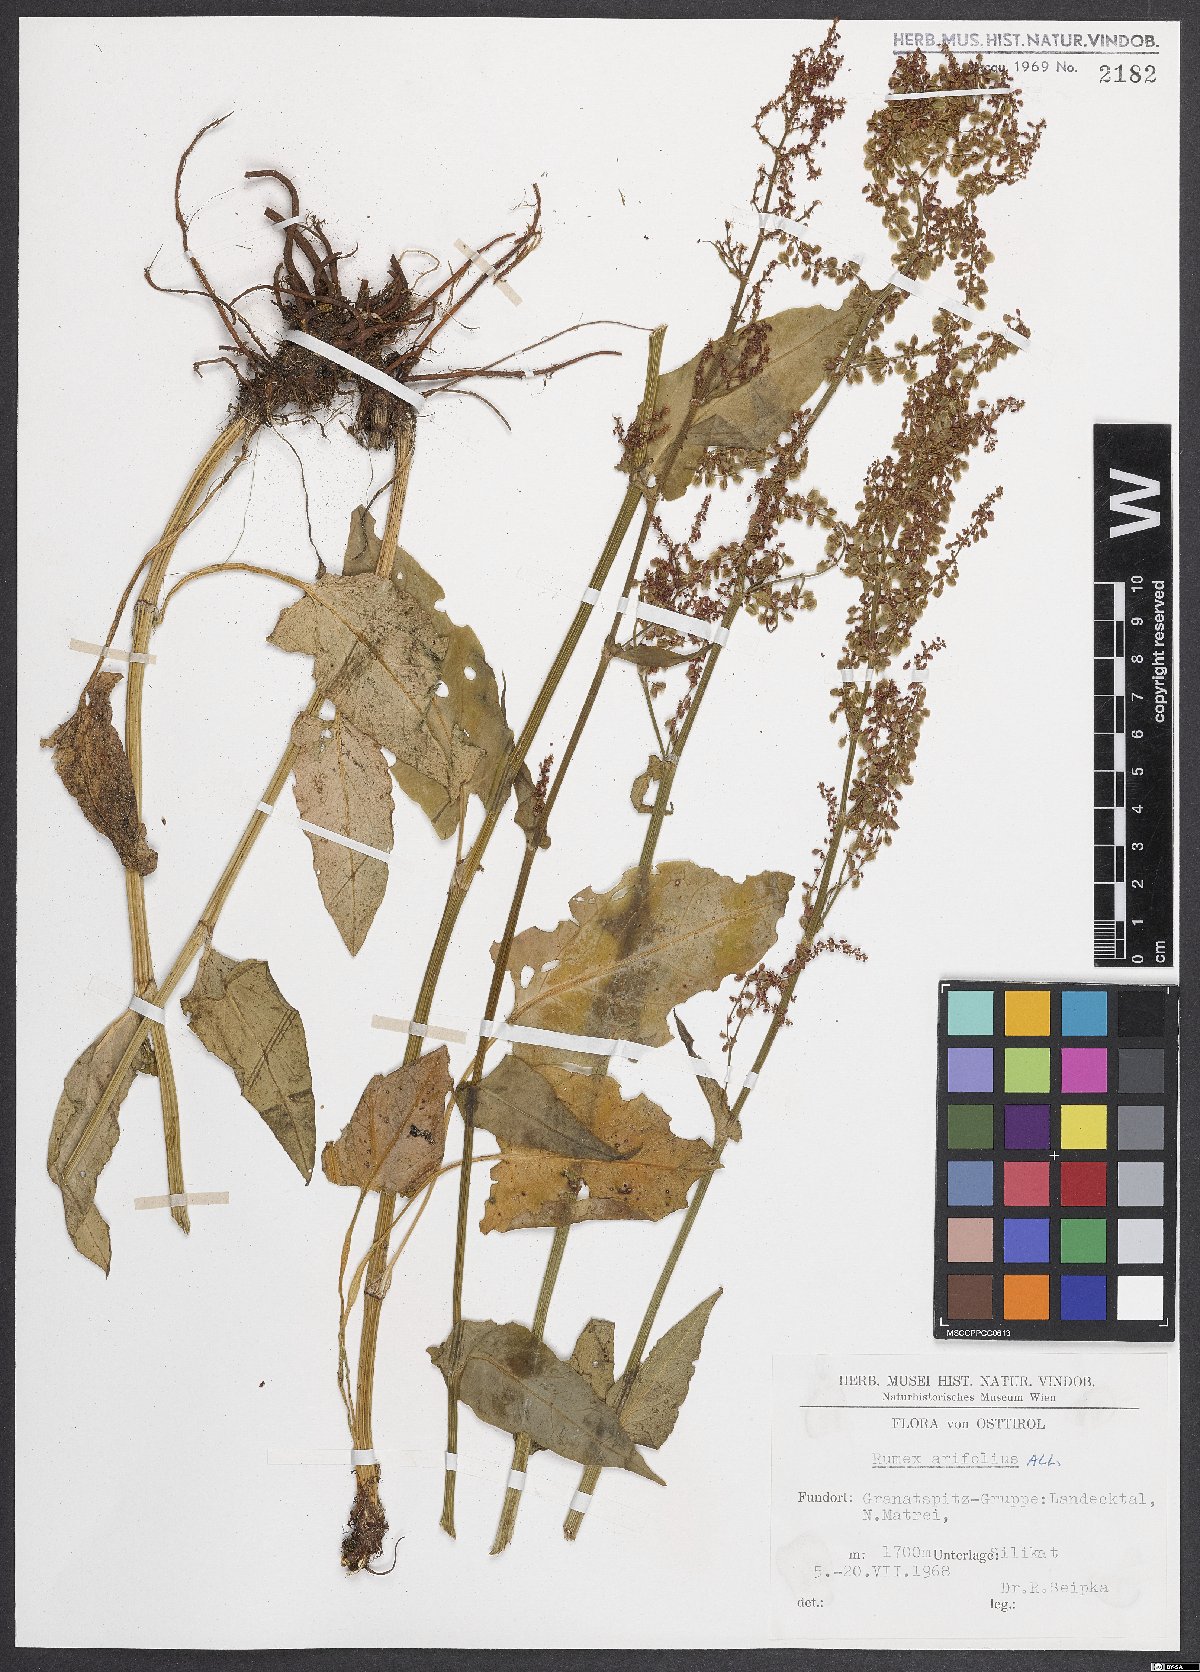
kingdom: Plantae
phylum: Tracheophyta
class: Magnoliopsida
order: Caryophyllales
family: Polygonaceae
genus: Rumex
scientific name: Rumex arifolius
